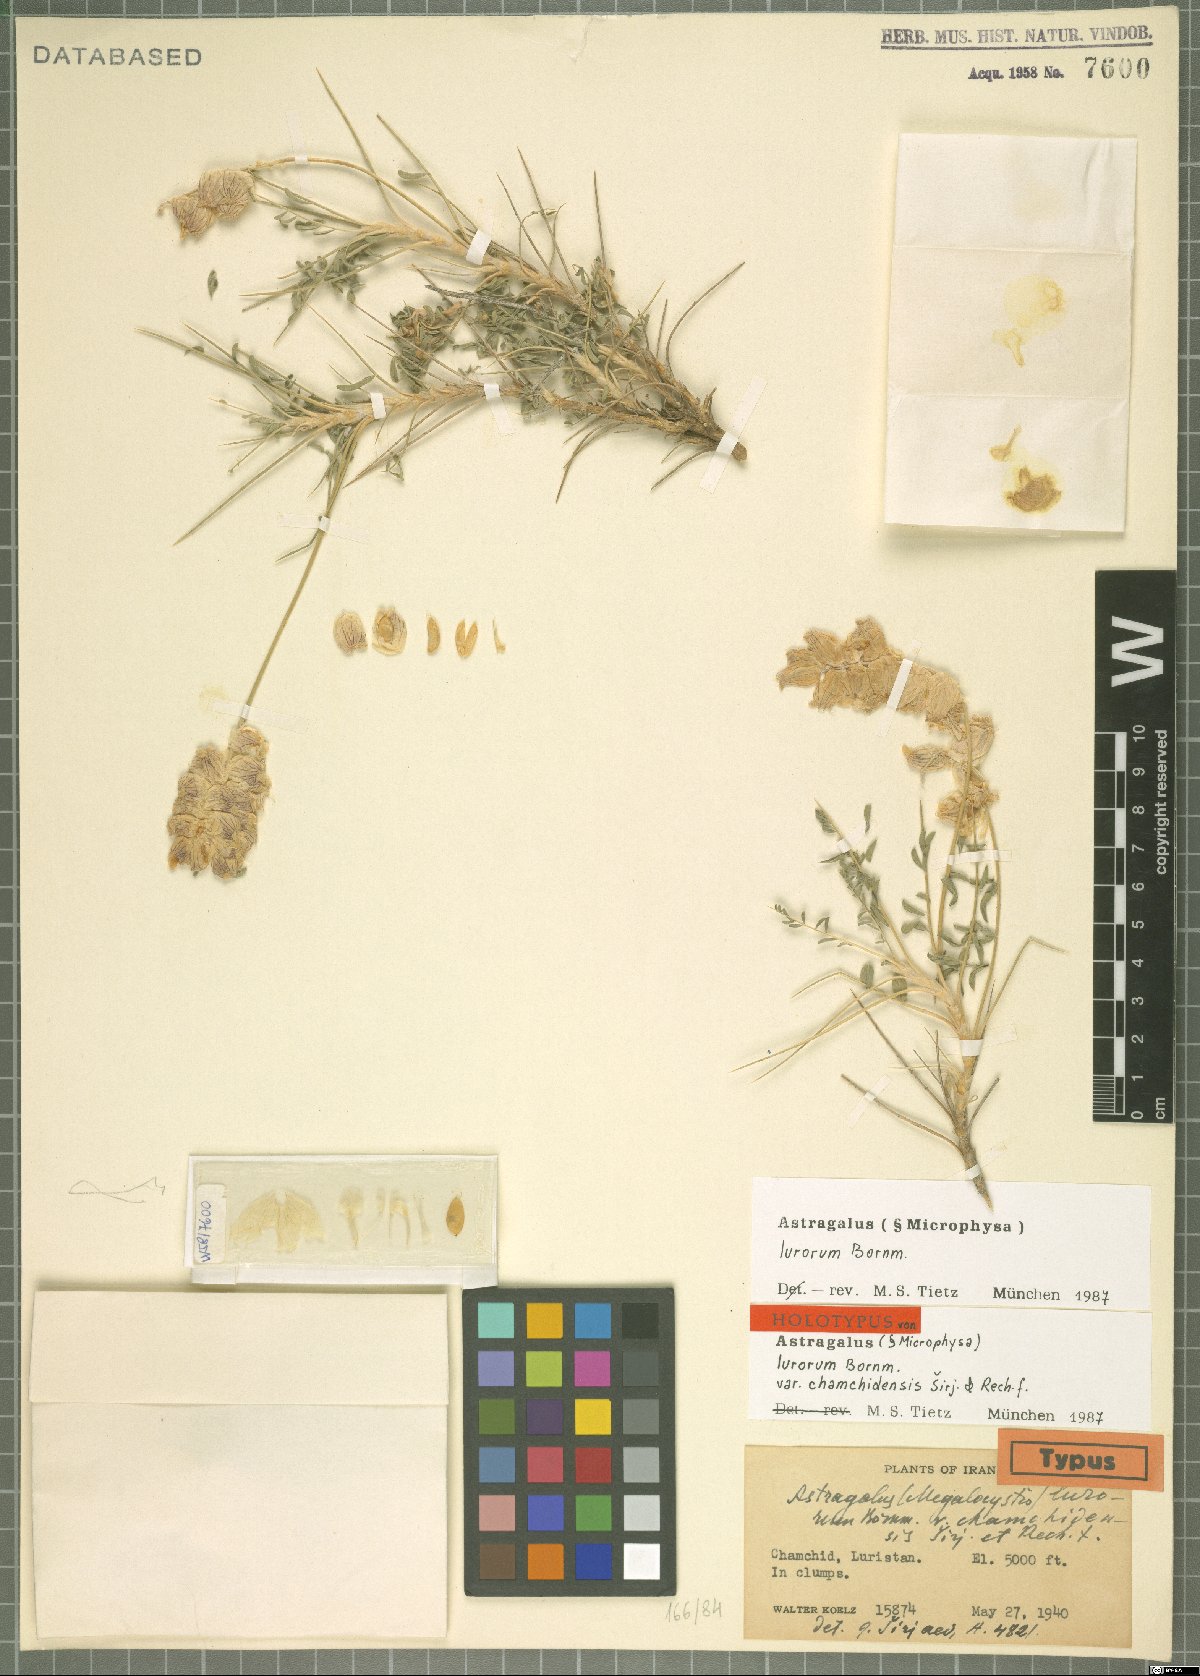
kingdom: Plantae
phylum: Tracheophyta
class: Magnoliopsida
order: Fabales
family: Fabaceae
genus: Astragalus
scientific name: Astragalus lurorum
